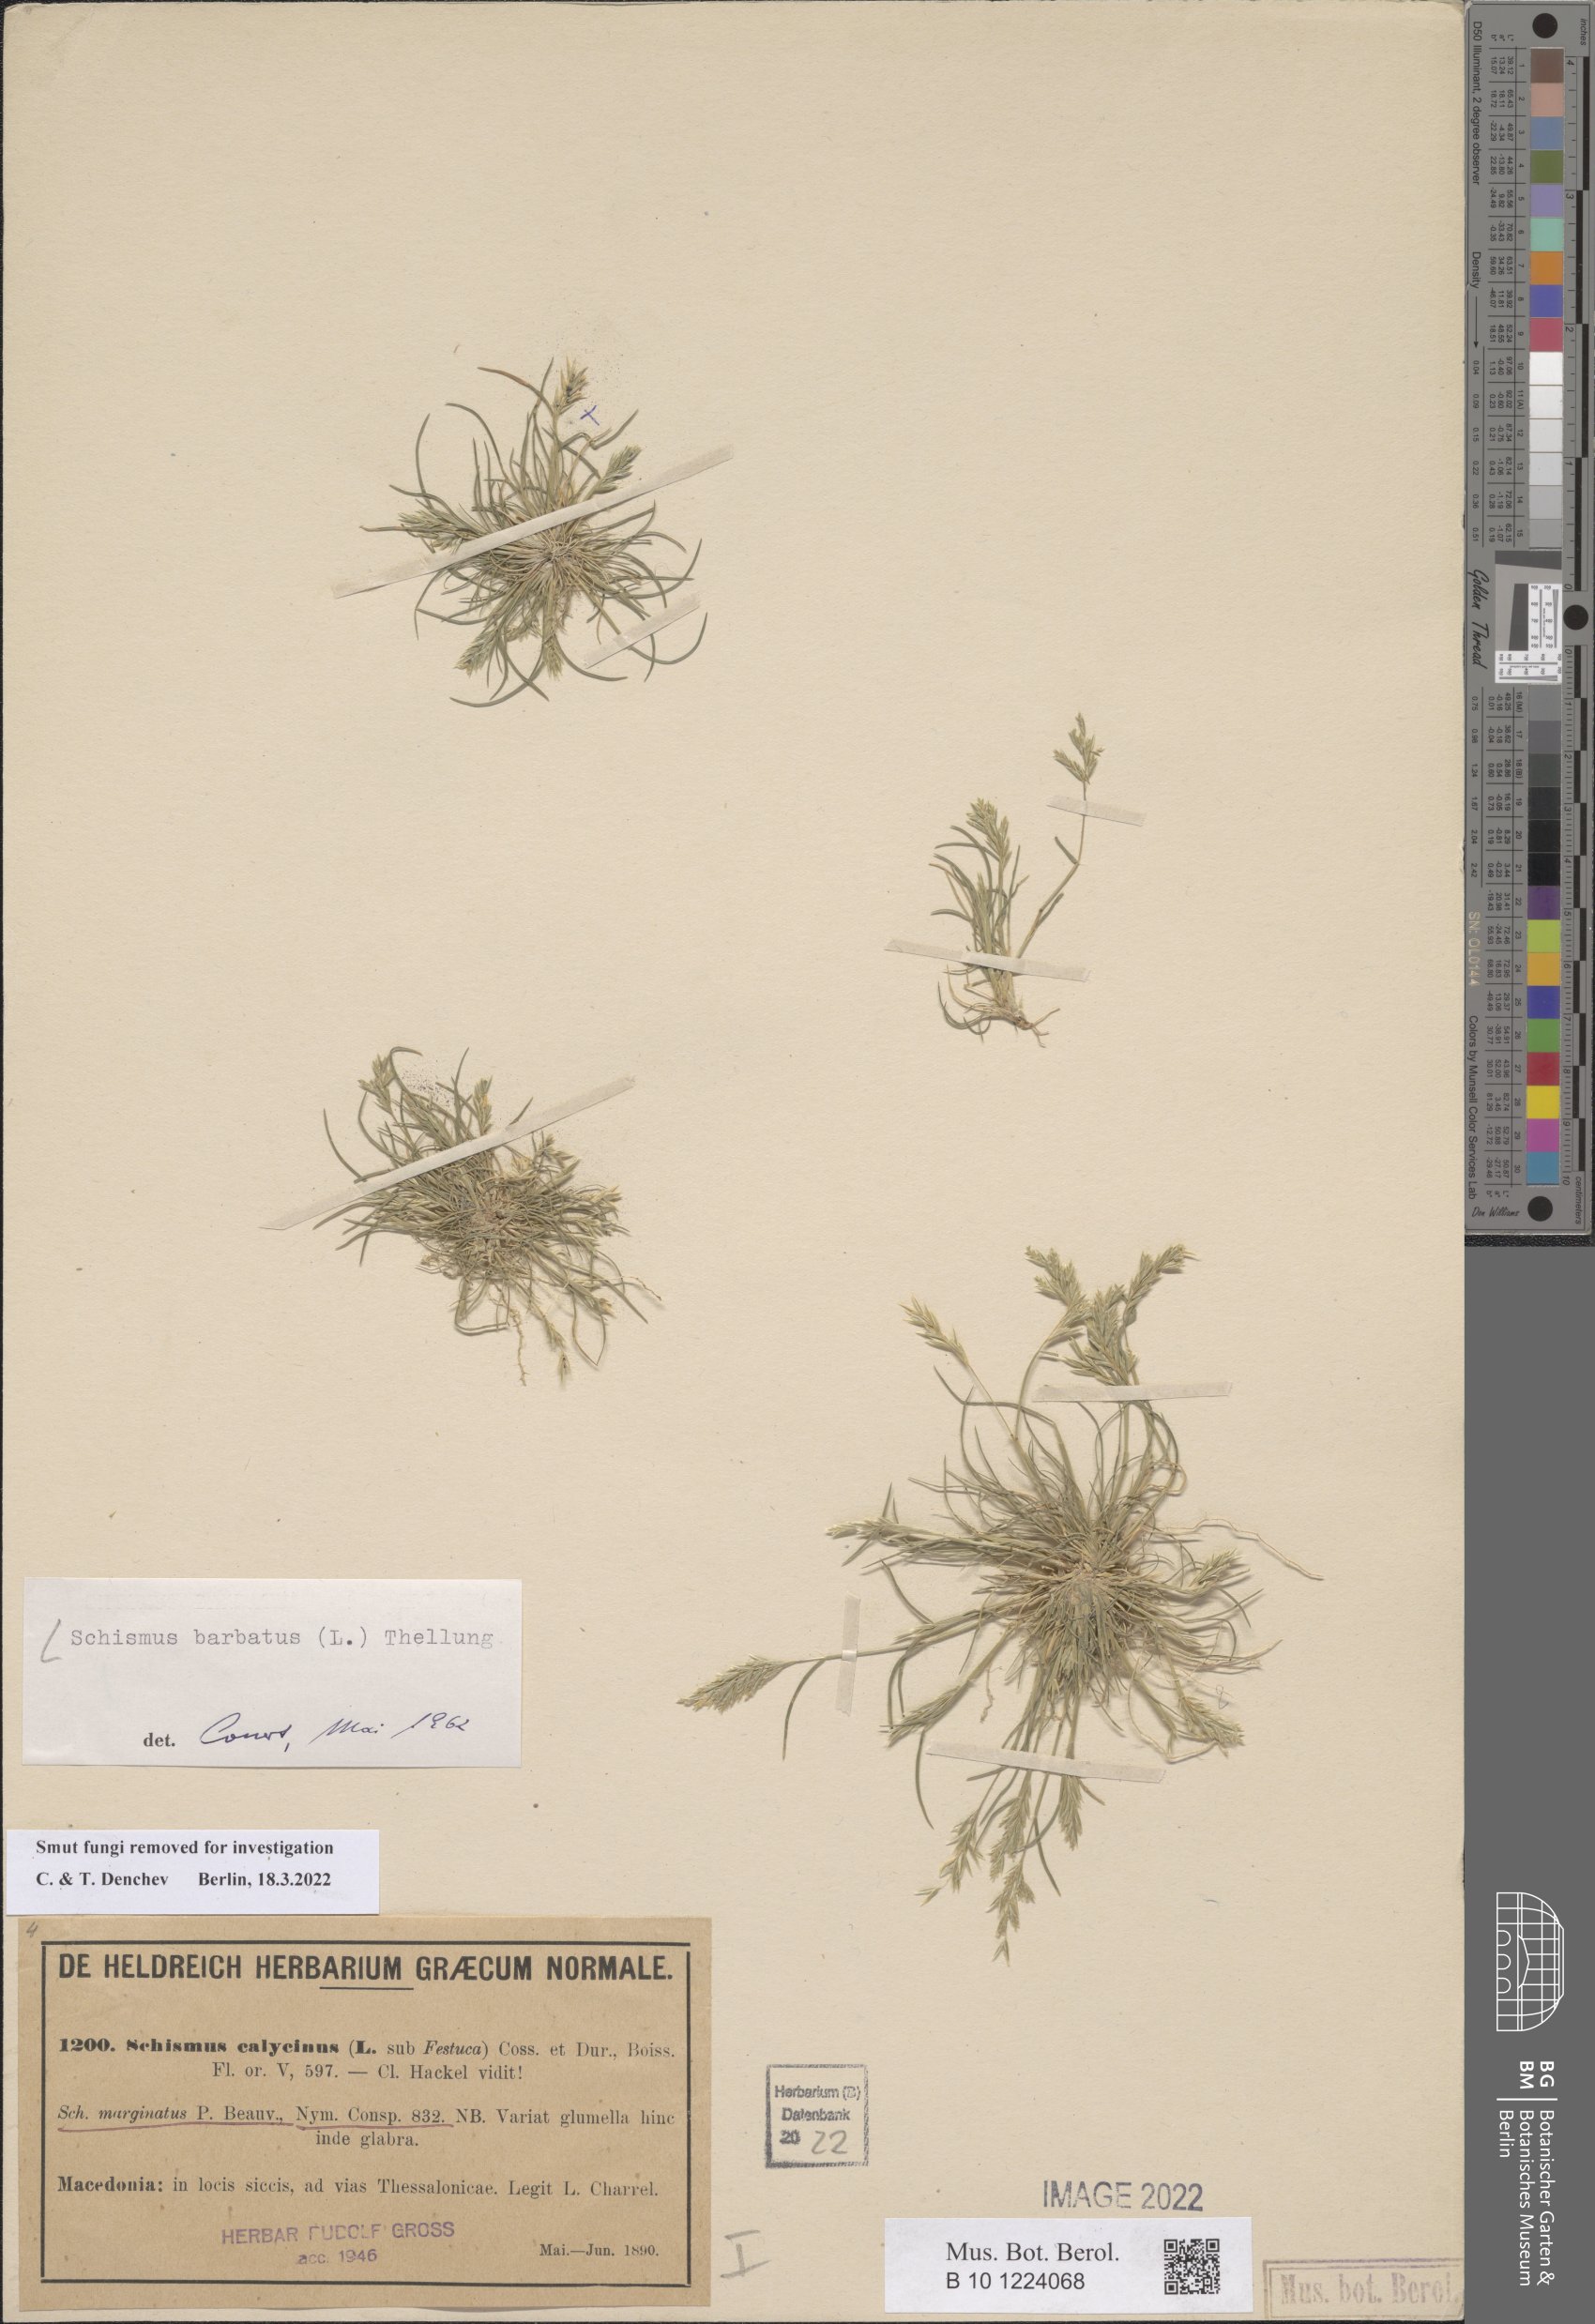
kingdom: Plantae
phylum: Tracheophyta
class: Liliopsida
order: Poales
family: Poaceae
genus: Schismus
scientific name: Schismus barbatus
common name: Kelch-grass
